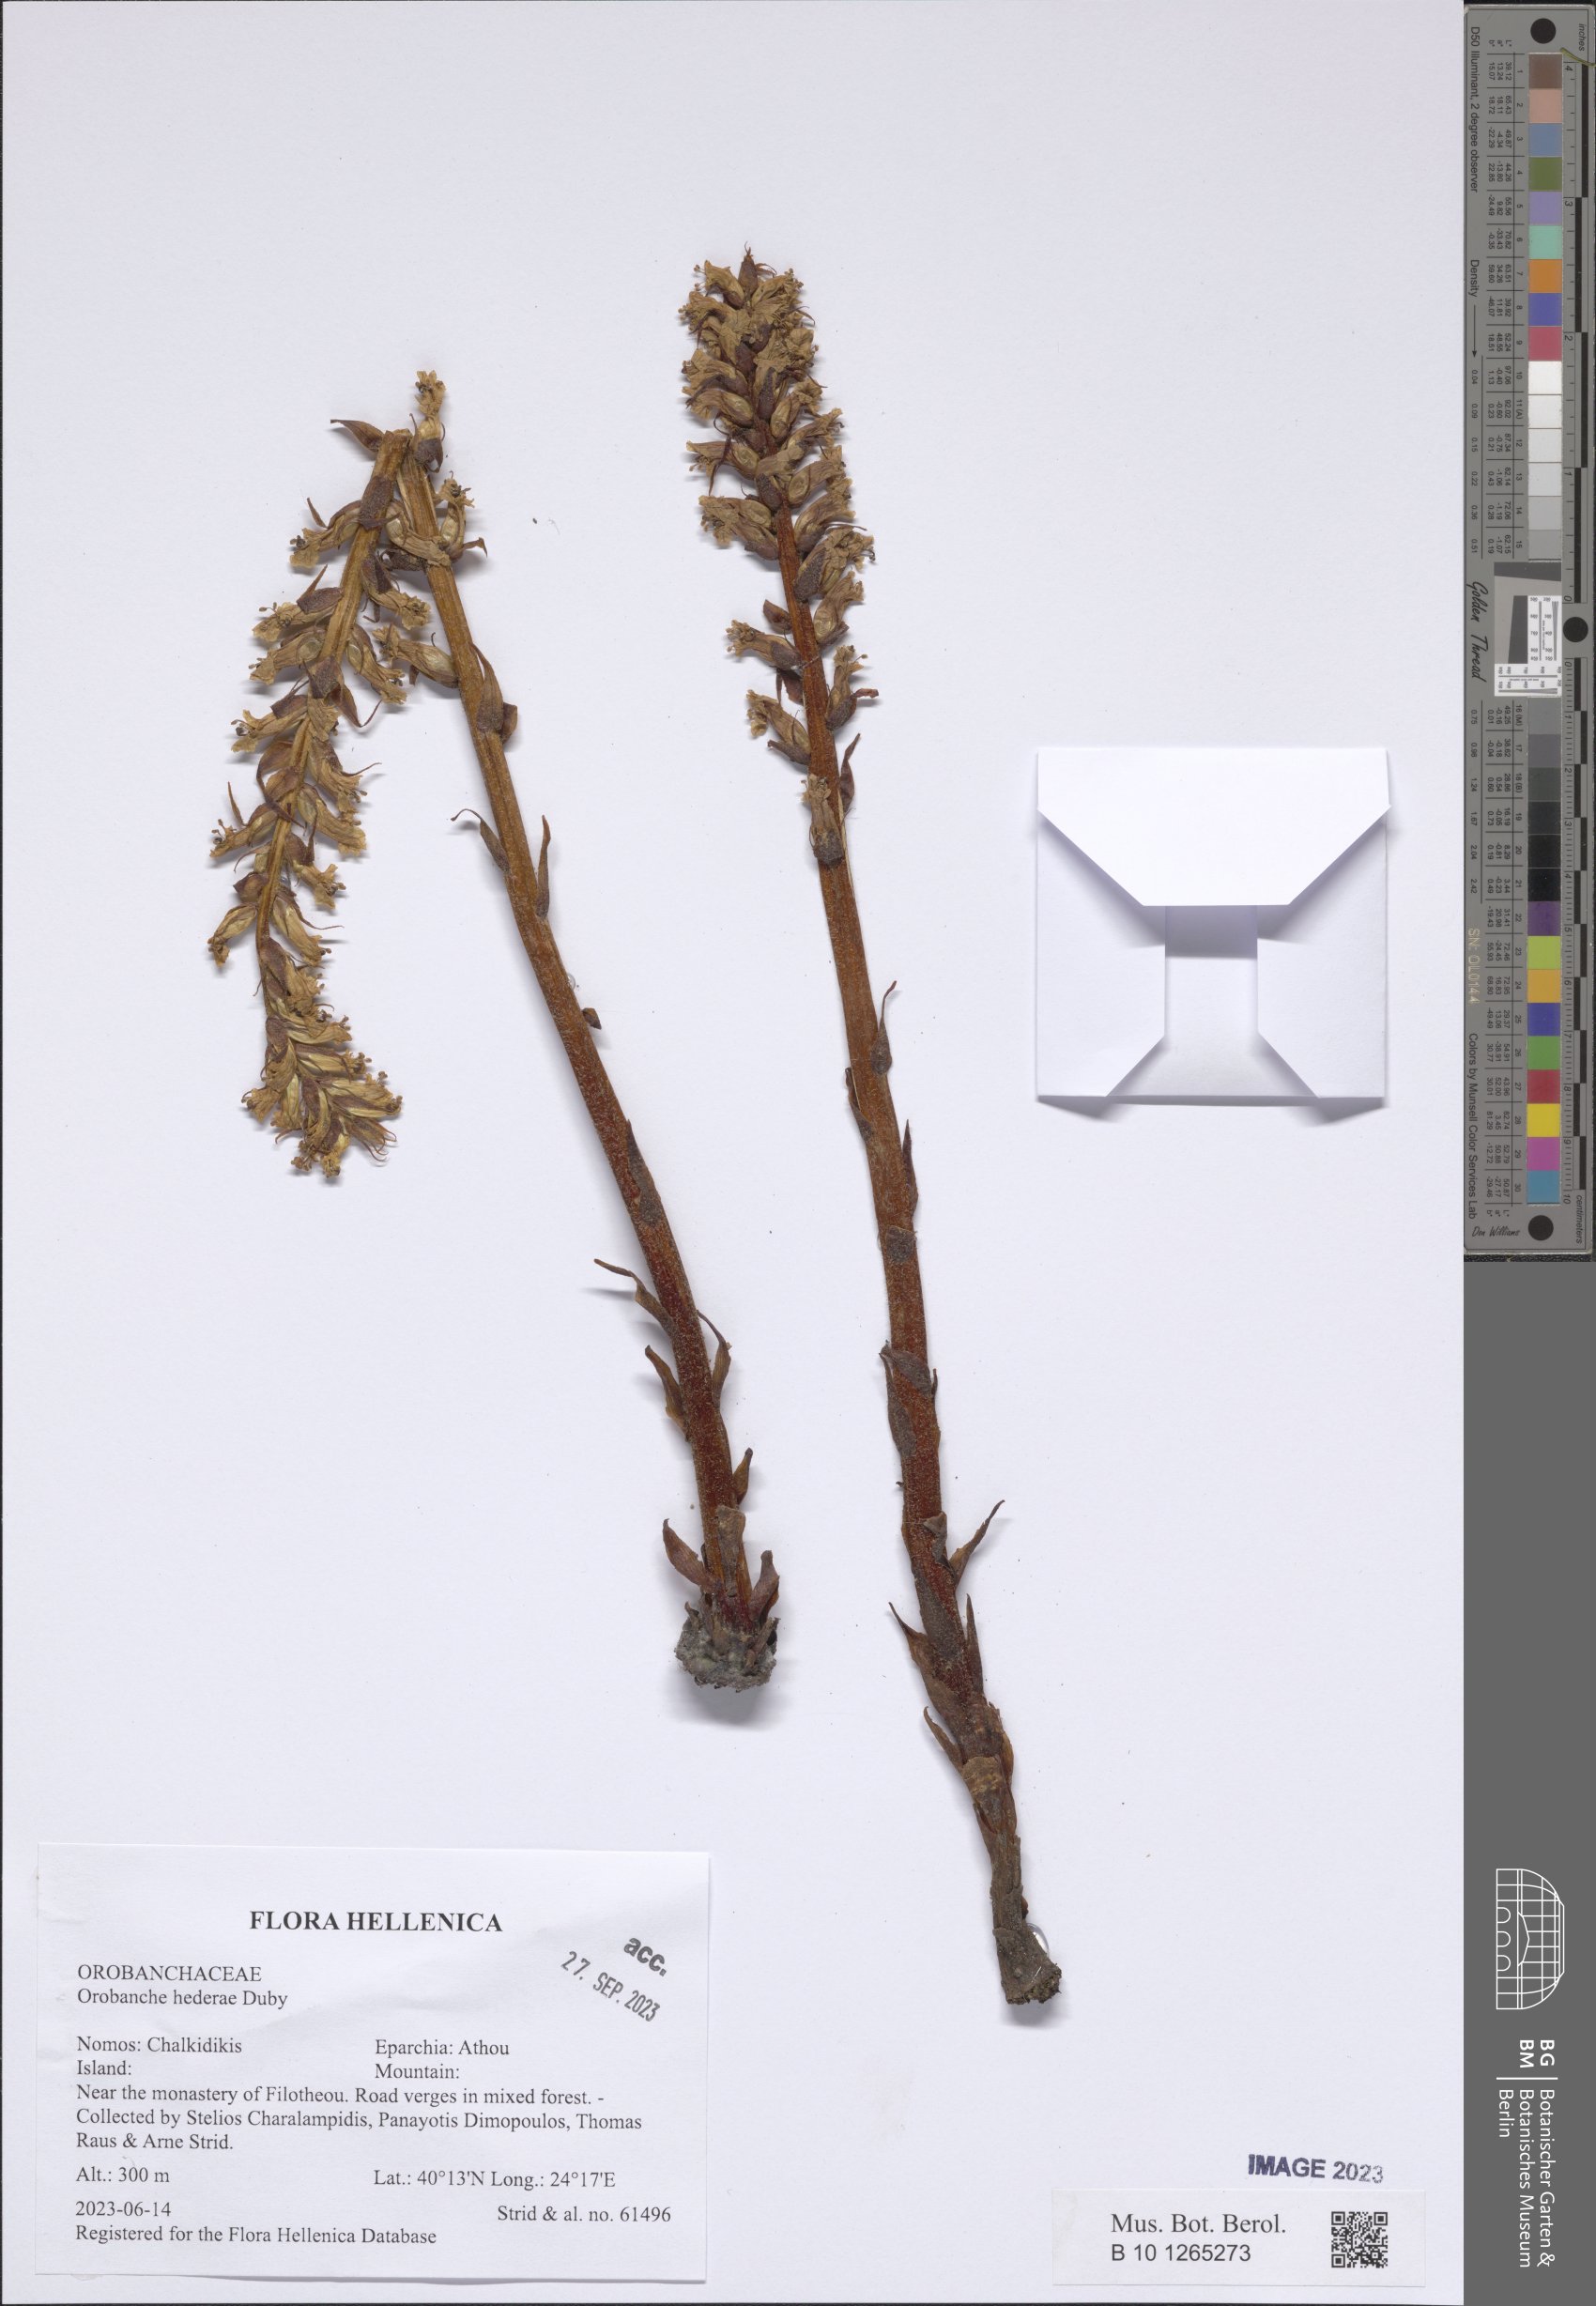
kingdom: Plantae
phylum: Tracheophyta
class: Magnoliopsida
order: Lamiales
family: Orobanchaceae
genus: Orobanche
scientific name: Orobanche hederae
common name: Ivy broomrape
